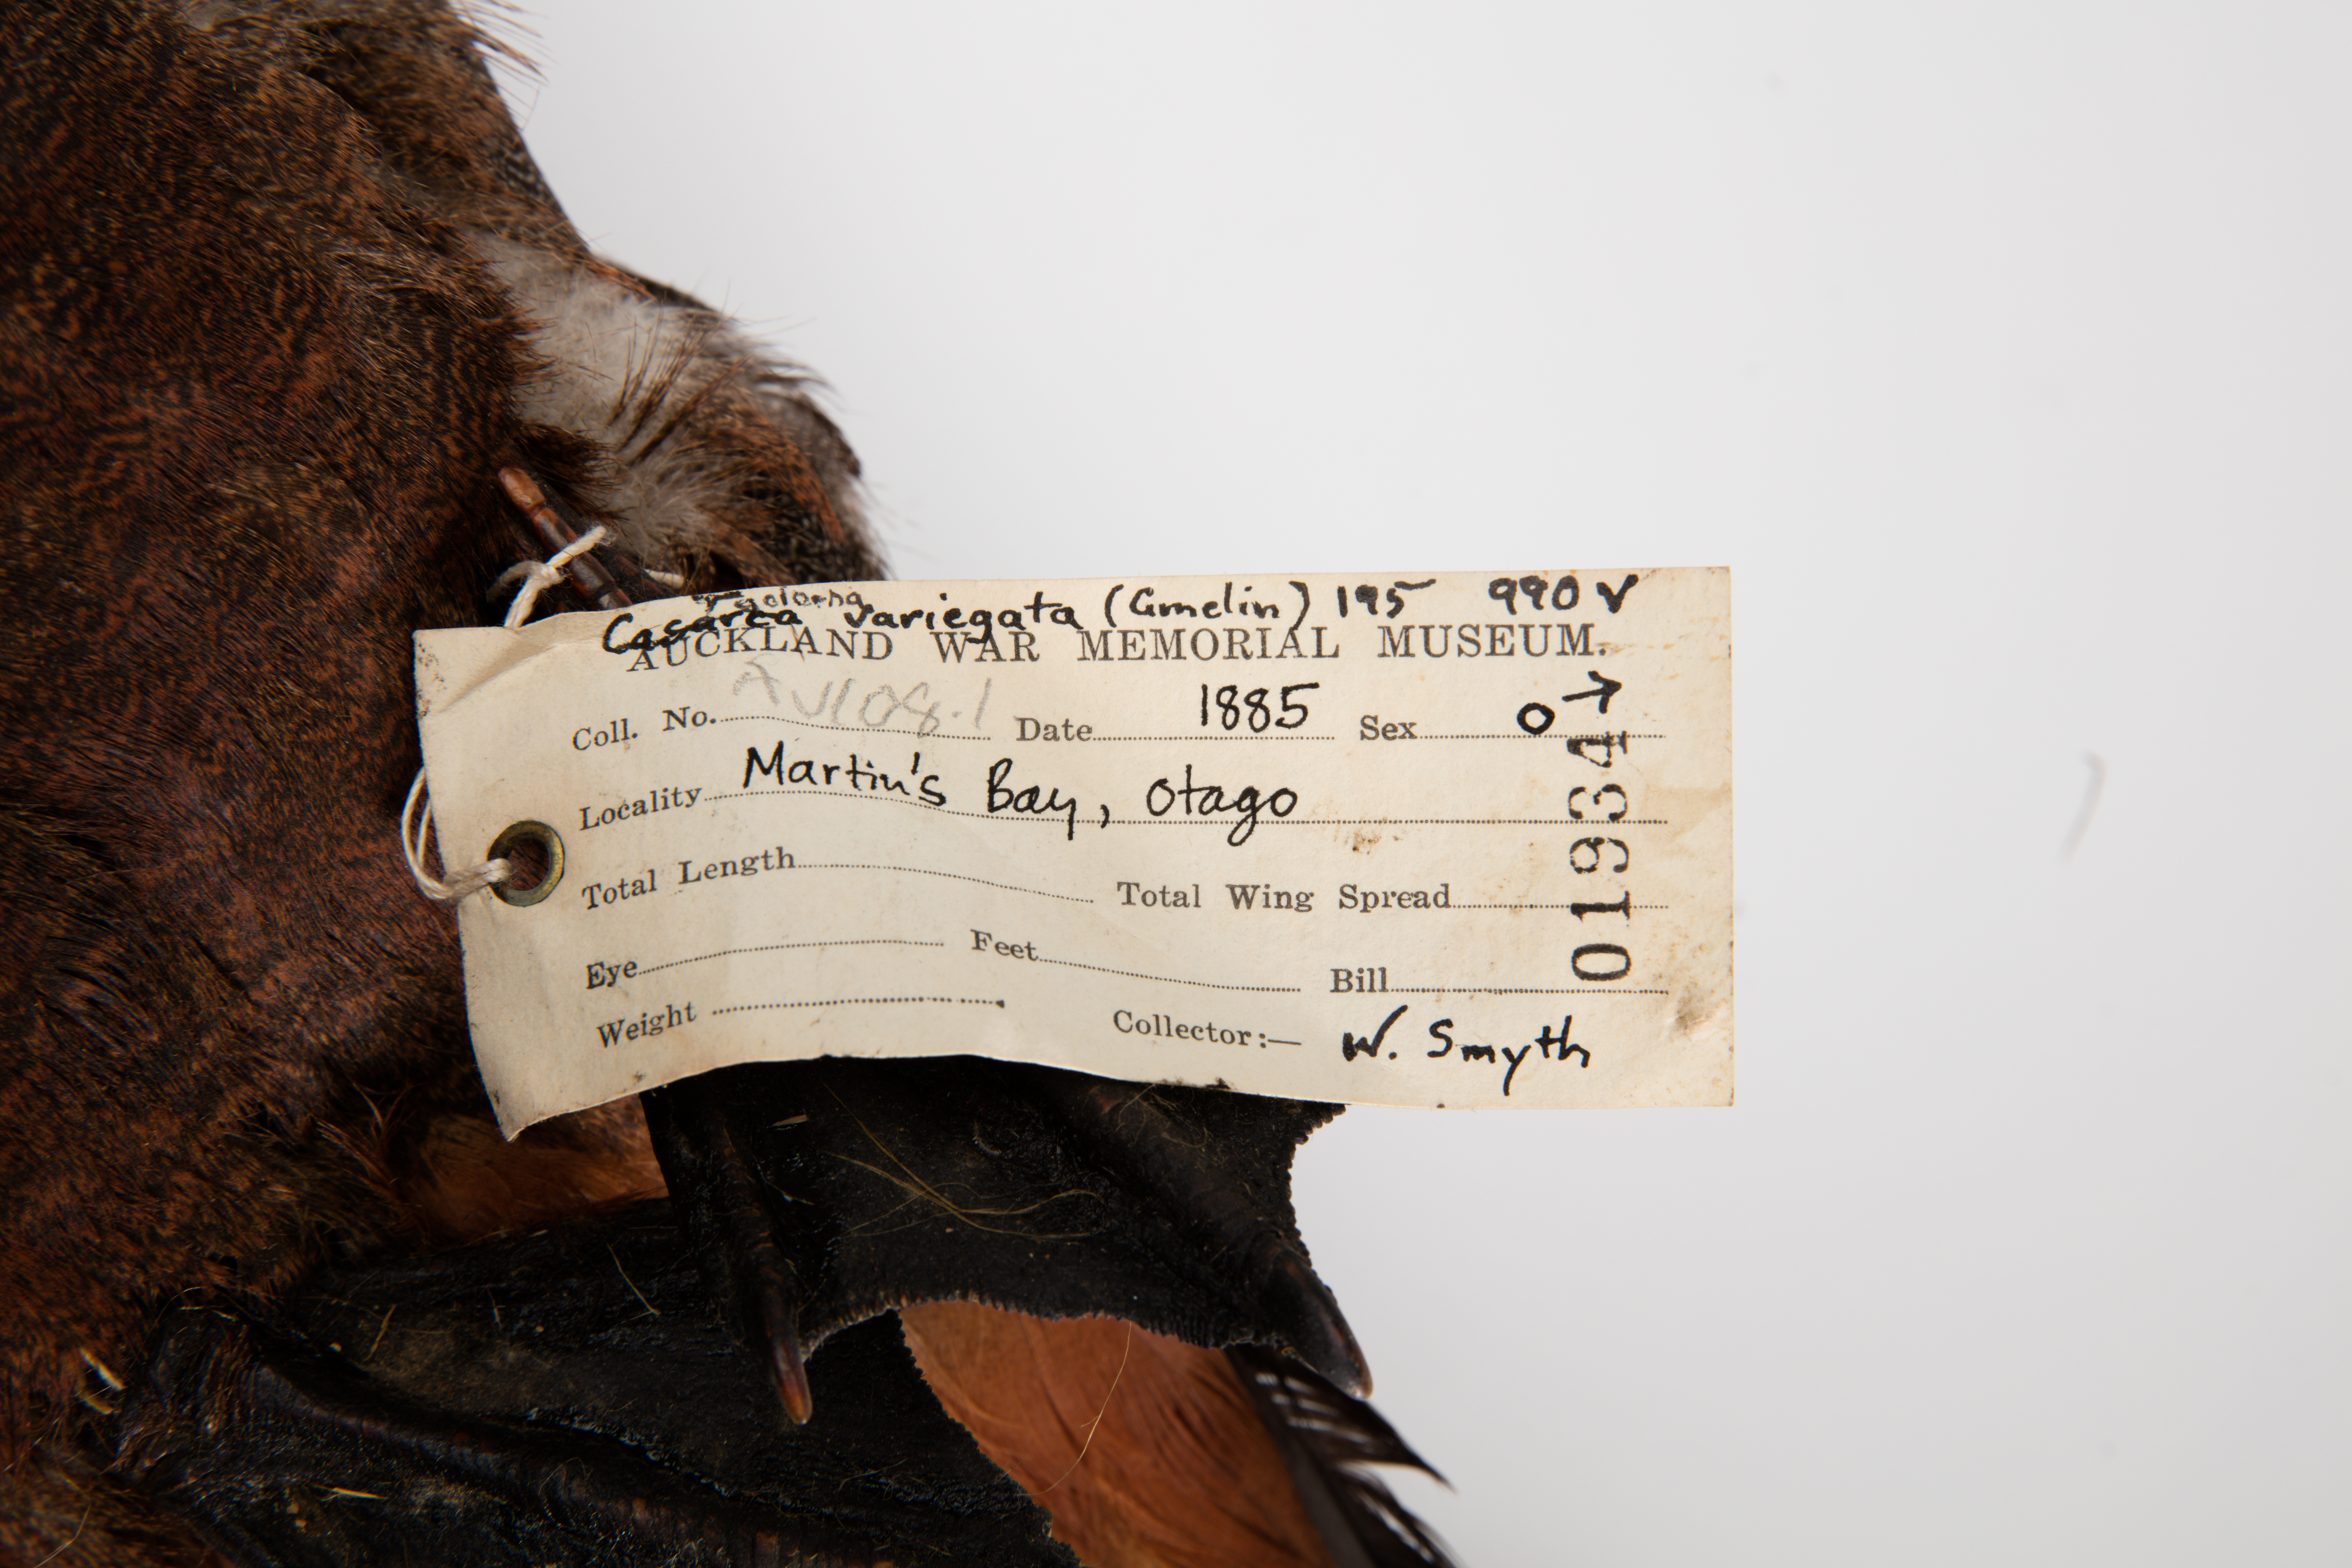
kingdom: Animalia
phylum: Chordata
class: Aves
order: Anseriformes
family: Anatidae
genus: Tadorna
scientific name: Tadorna variegata
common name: Paradise shelduck
